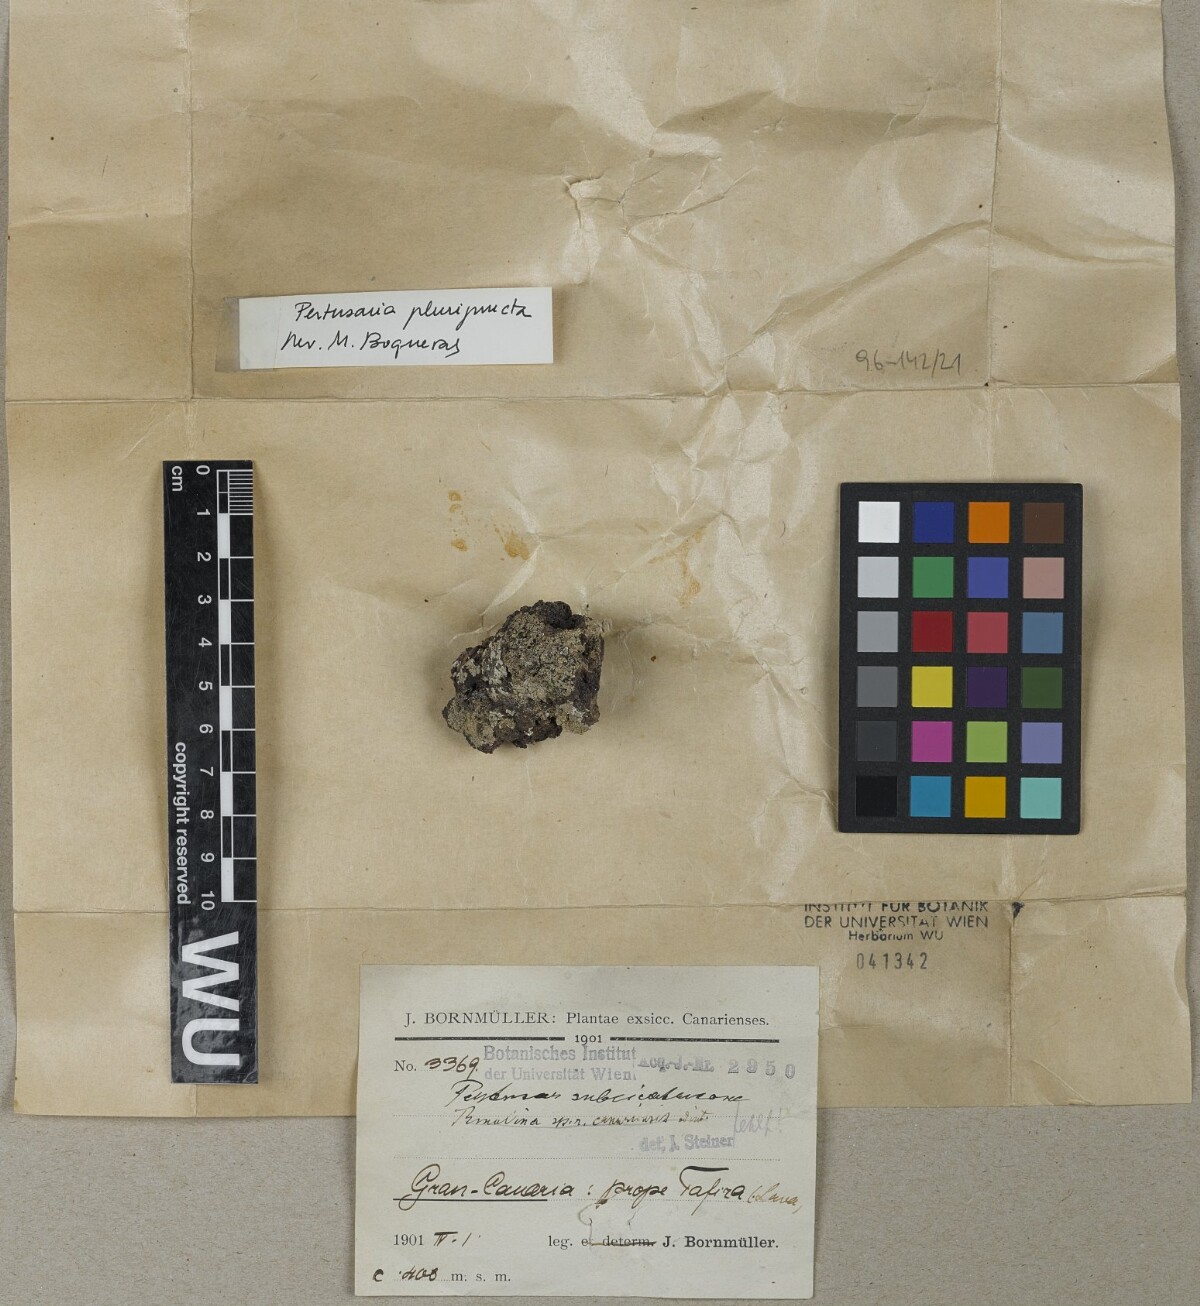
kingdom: Fungi
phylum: Ascomycota
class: Lecanoromycetes
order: Pertusariales
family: Pertusariaceae
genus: Pertusaria
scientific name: Pertusaria
